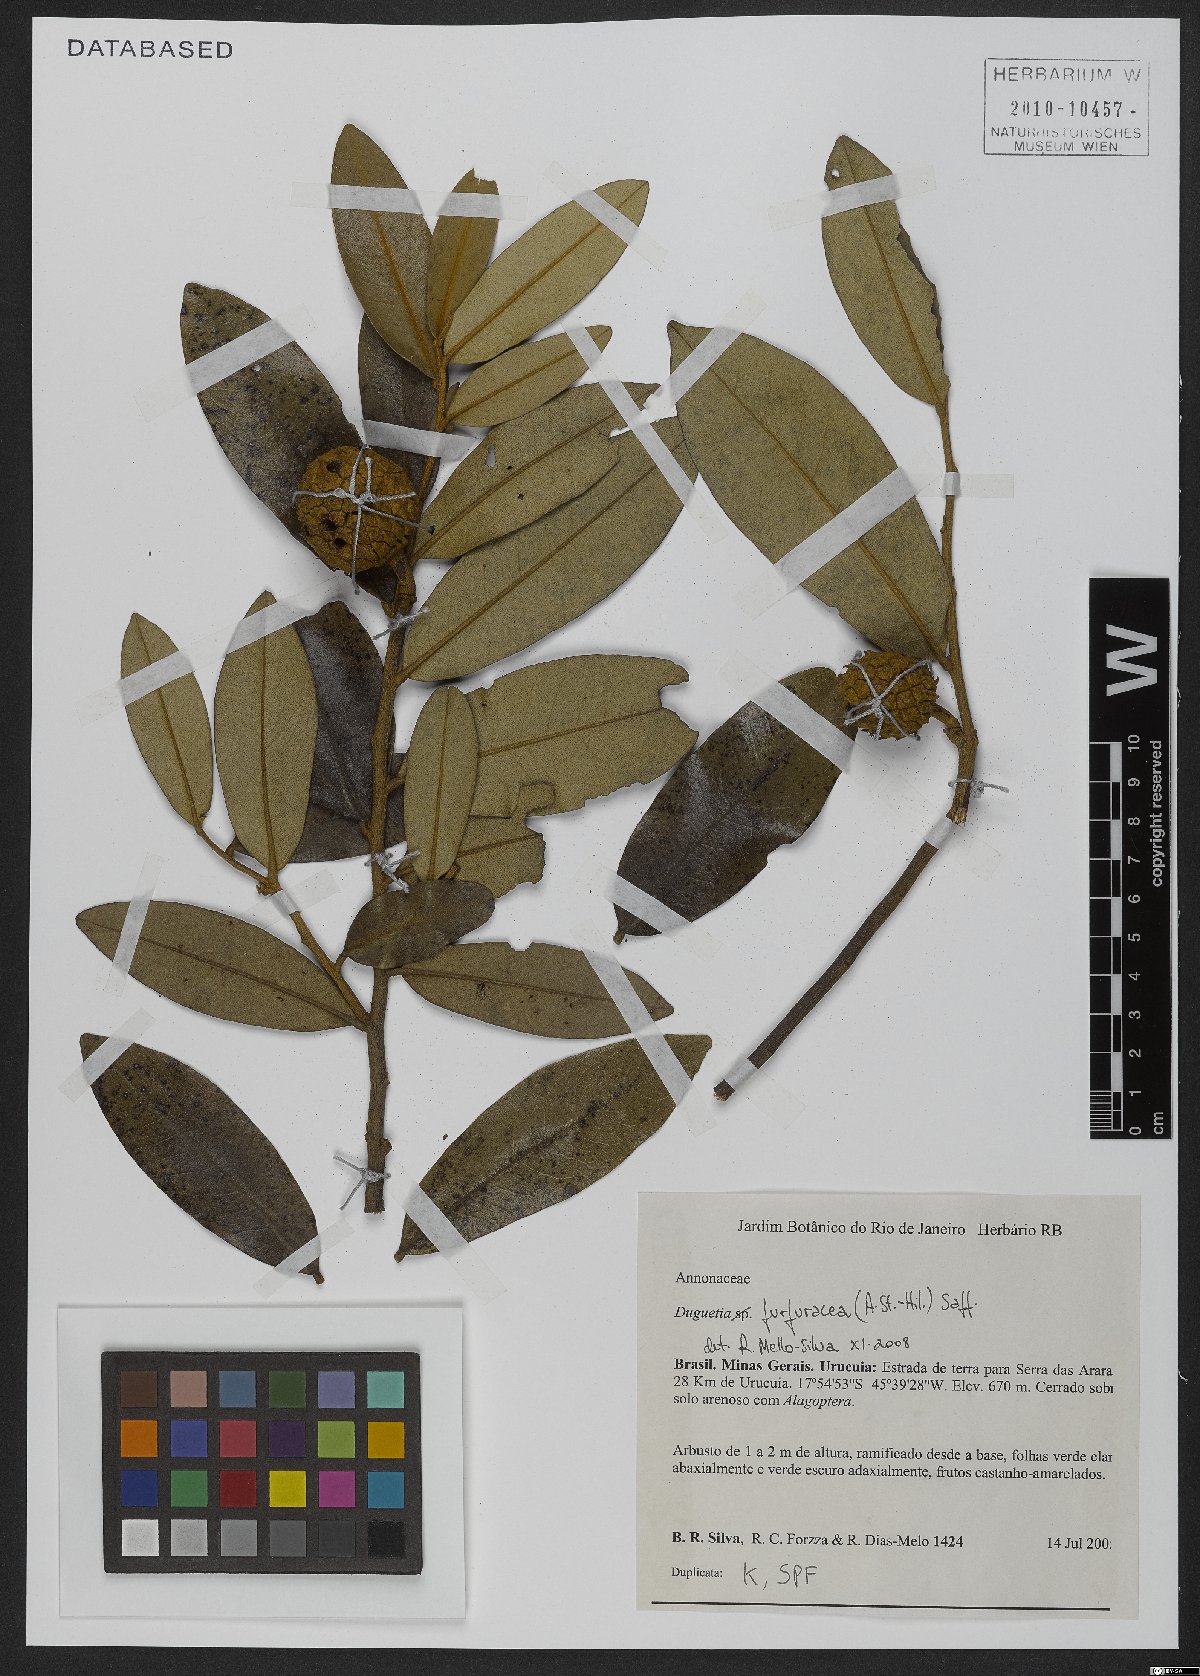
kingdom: Plantae
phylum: Tracheophyta
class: Magnoliopsida
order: Magnoliales
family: Annonaceae
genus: Duguetia
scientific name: Duguetia furfuracea
